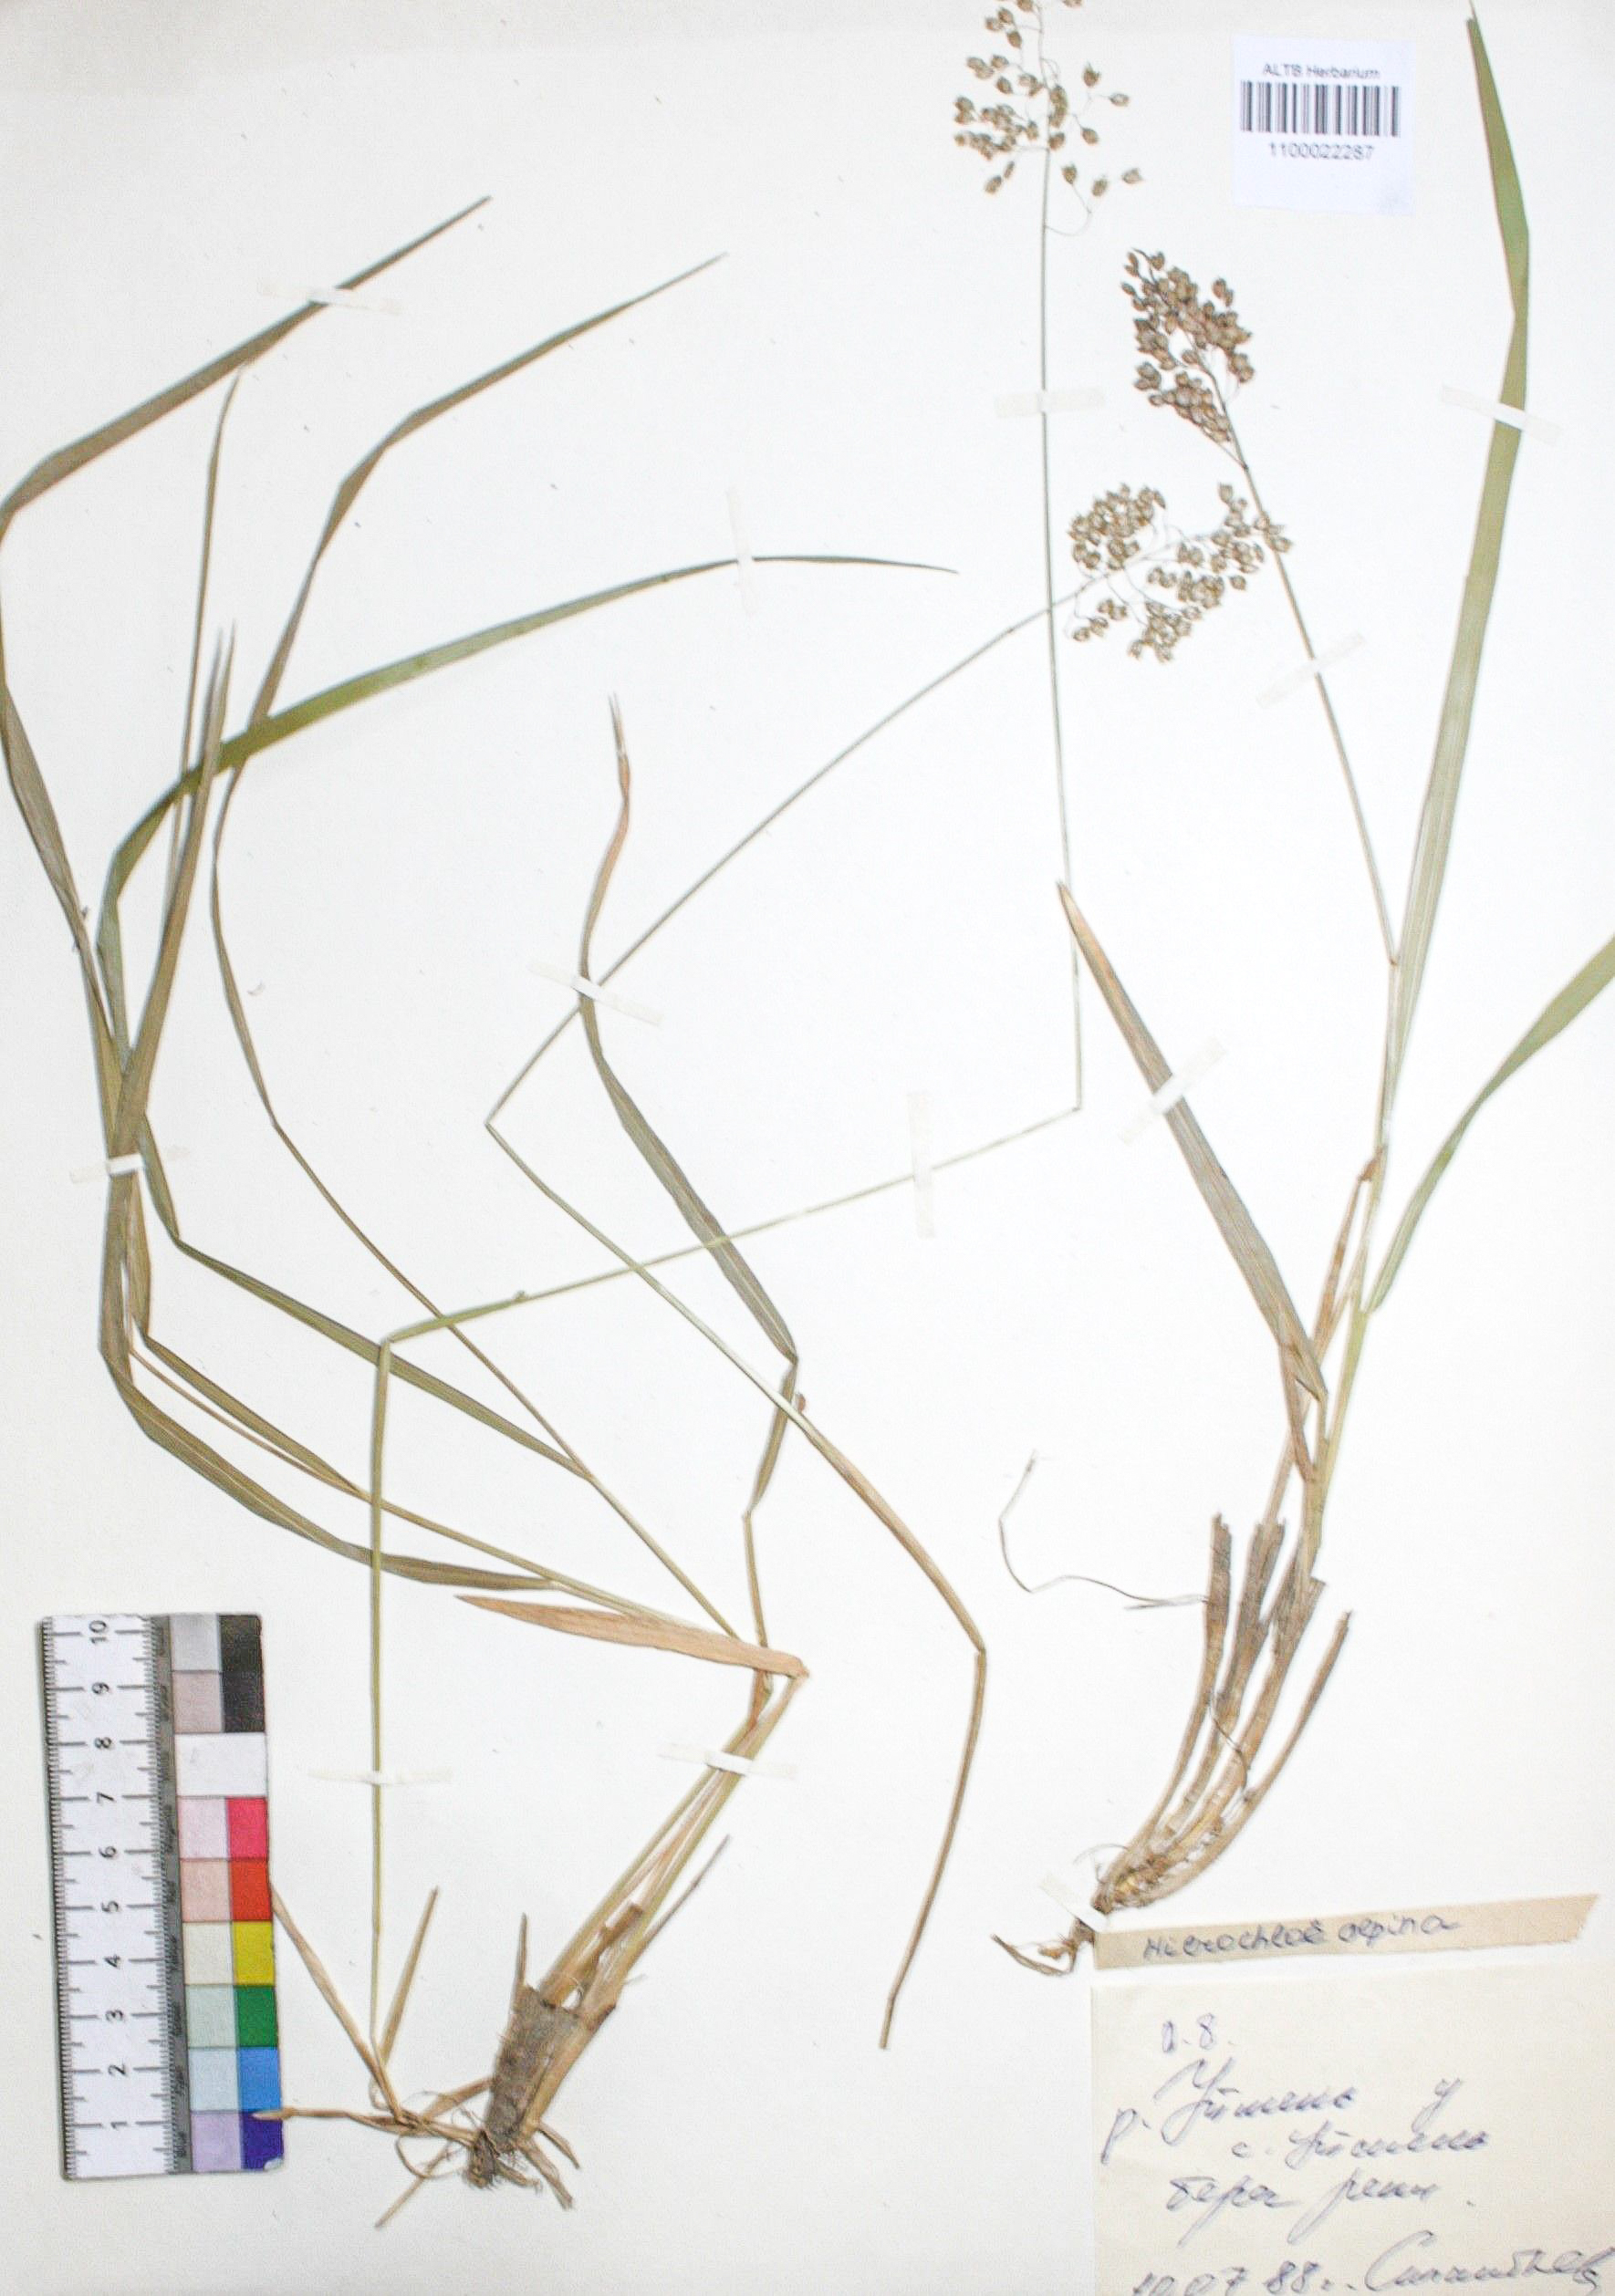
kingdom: Plantae
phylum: Tracheophyta
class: Liliopsida
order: Poales
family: Poaceae
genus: Anthoxanthum
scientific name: Anthoxanthum monticola
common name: Alpine sweetgrass
